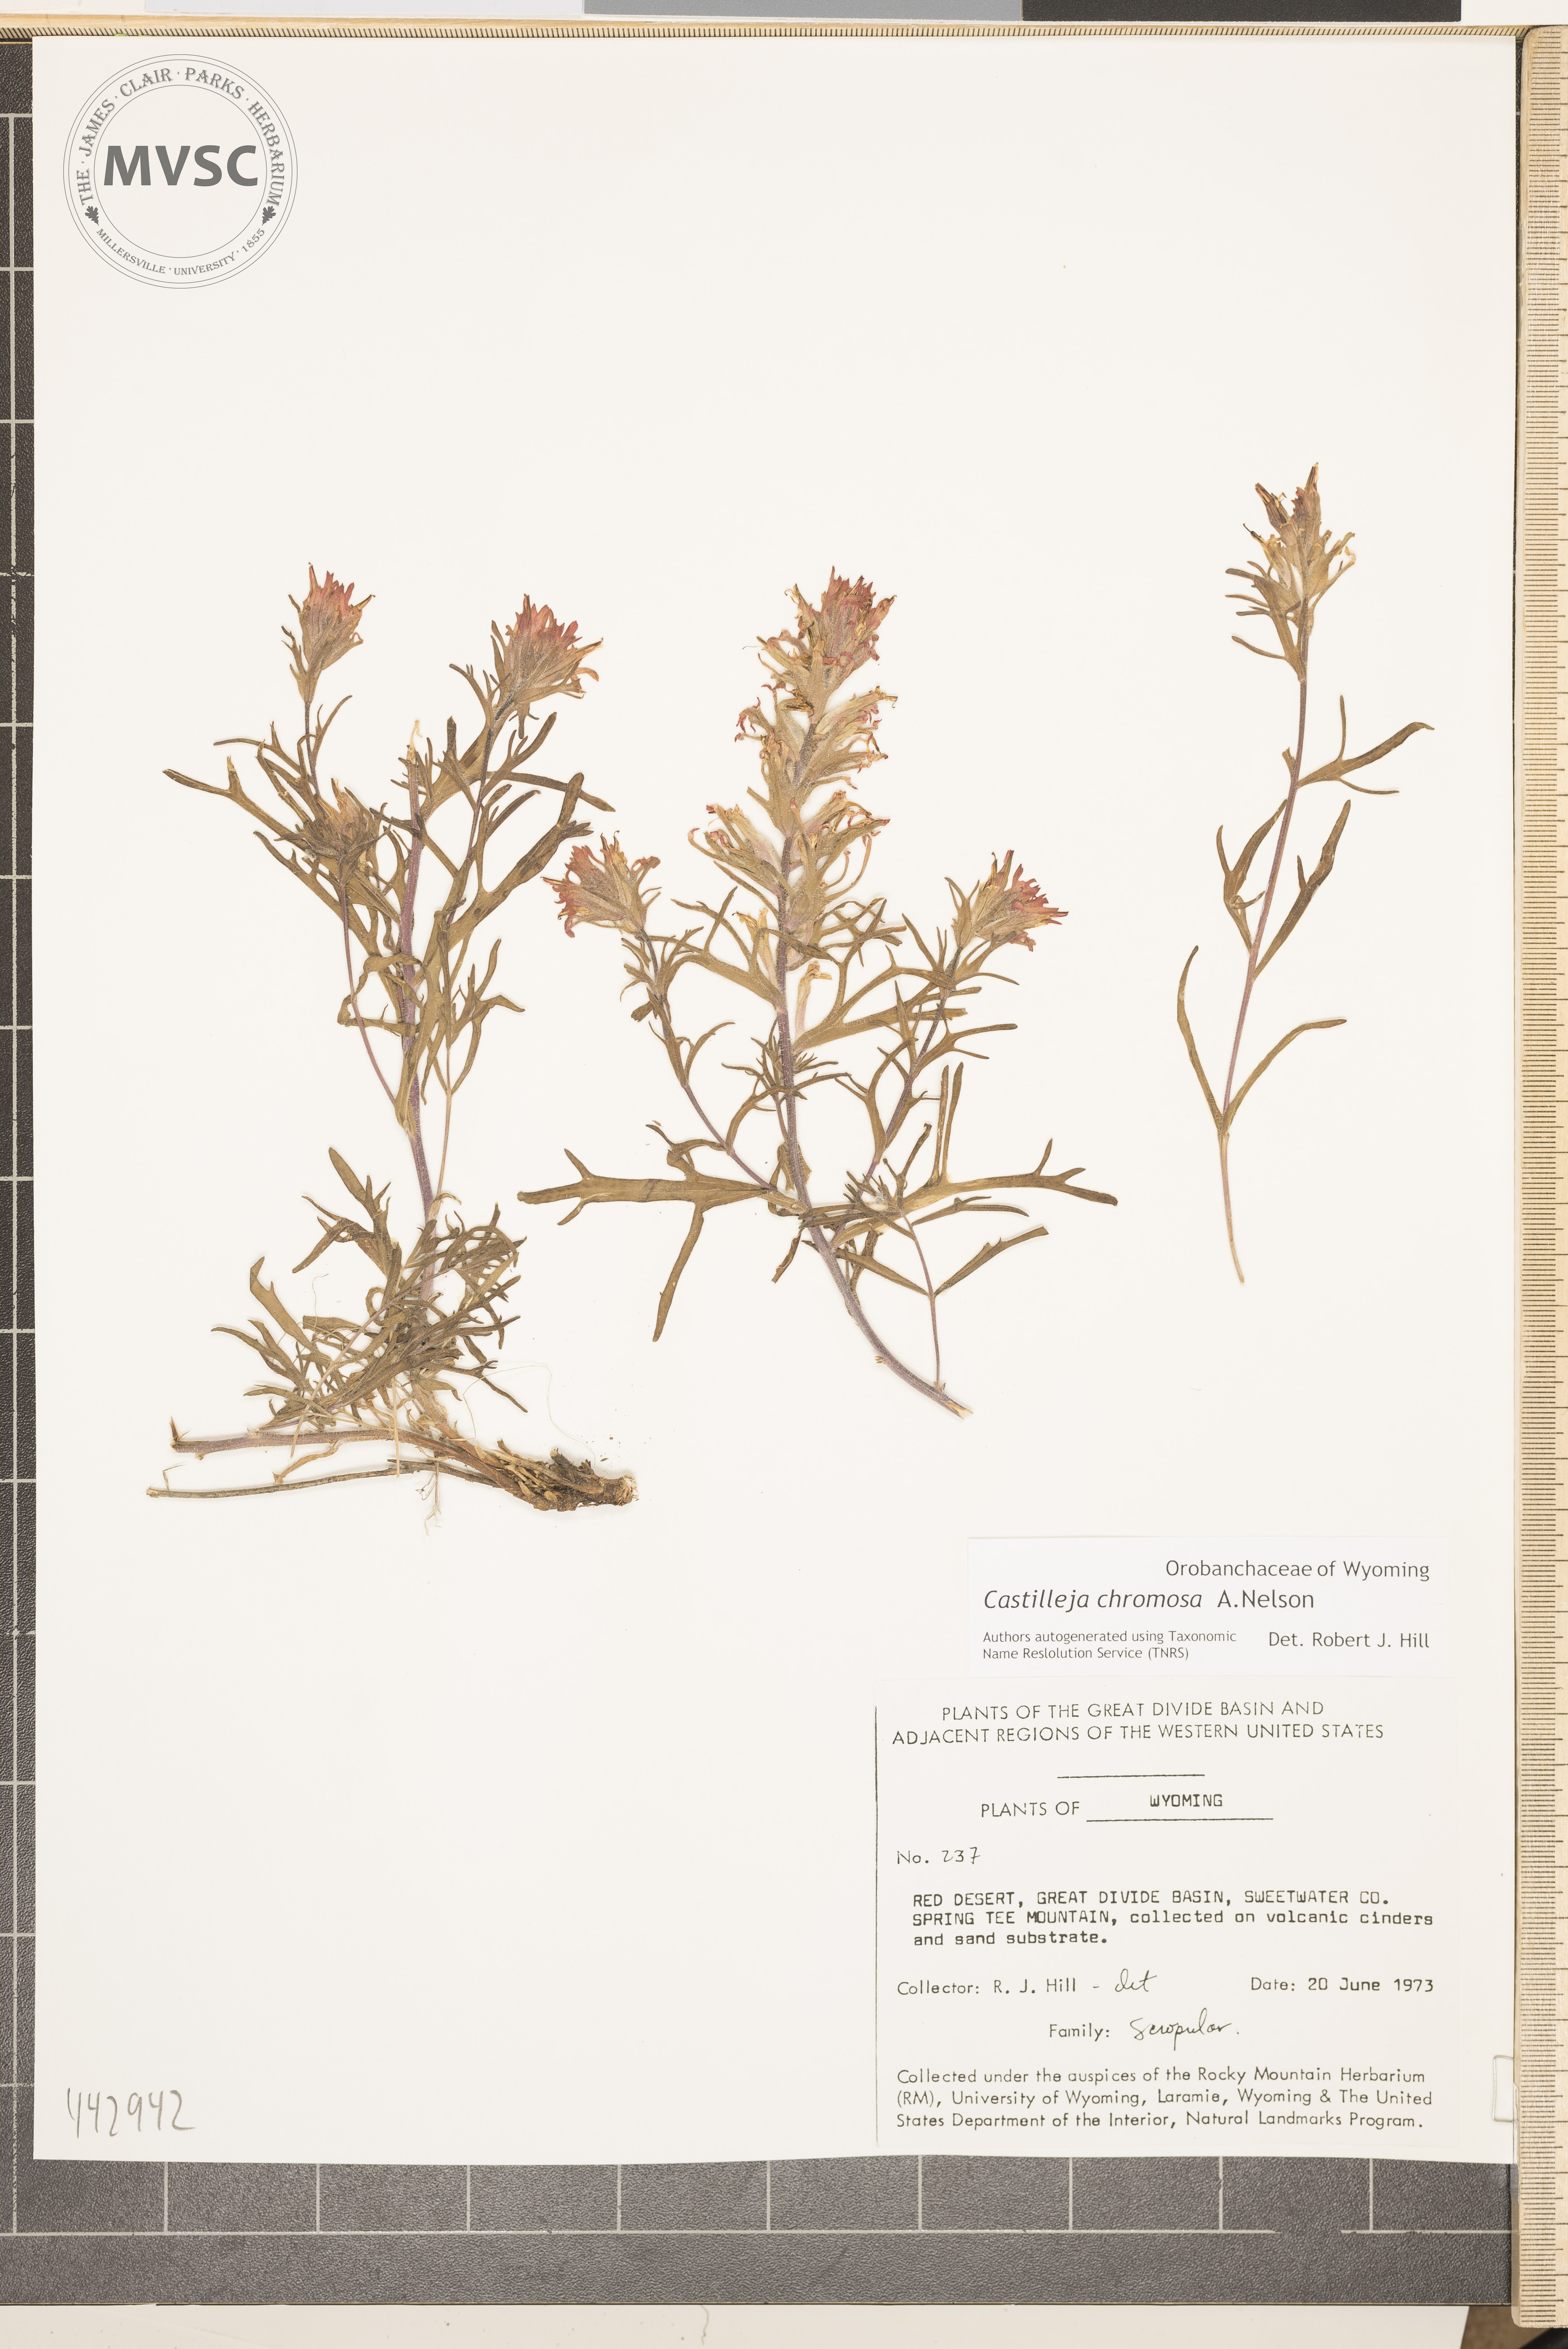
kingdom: Plantae
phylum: Tracheophyta
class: Magnoliopsida
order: Lamiales
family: Orobanchaceae
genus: Castilleja
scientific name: Castilleja chromosa
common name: Desert paintbrush
